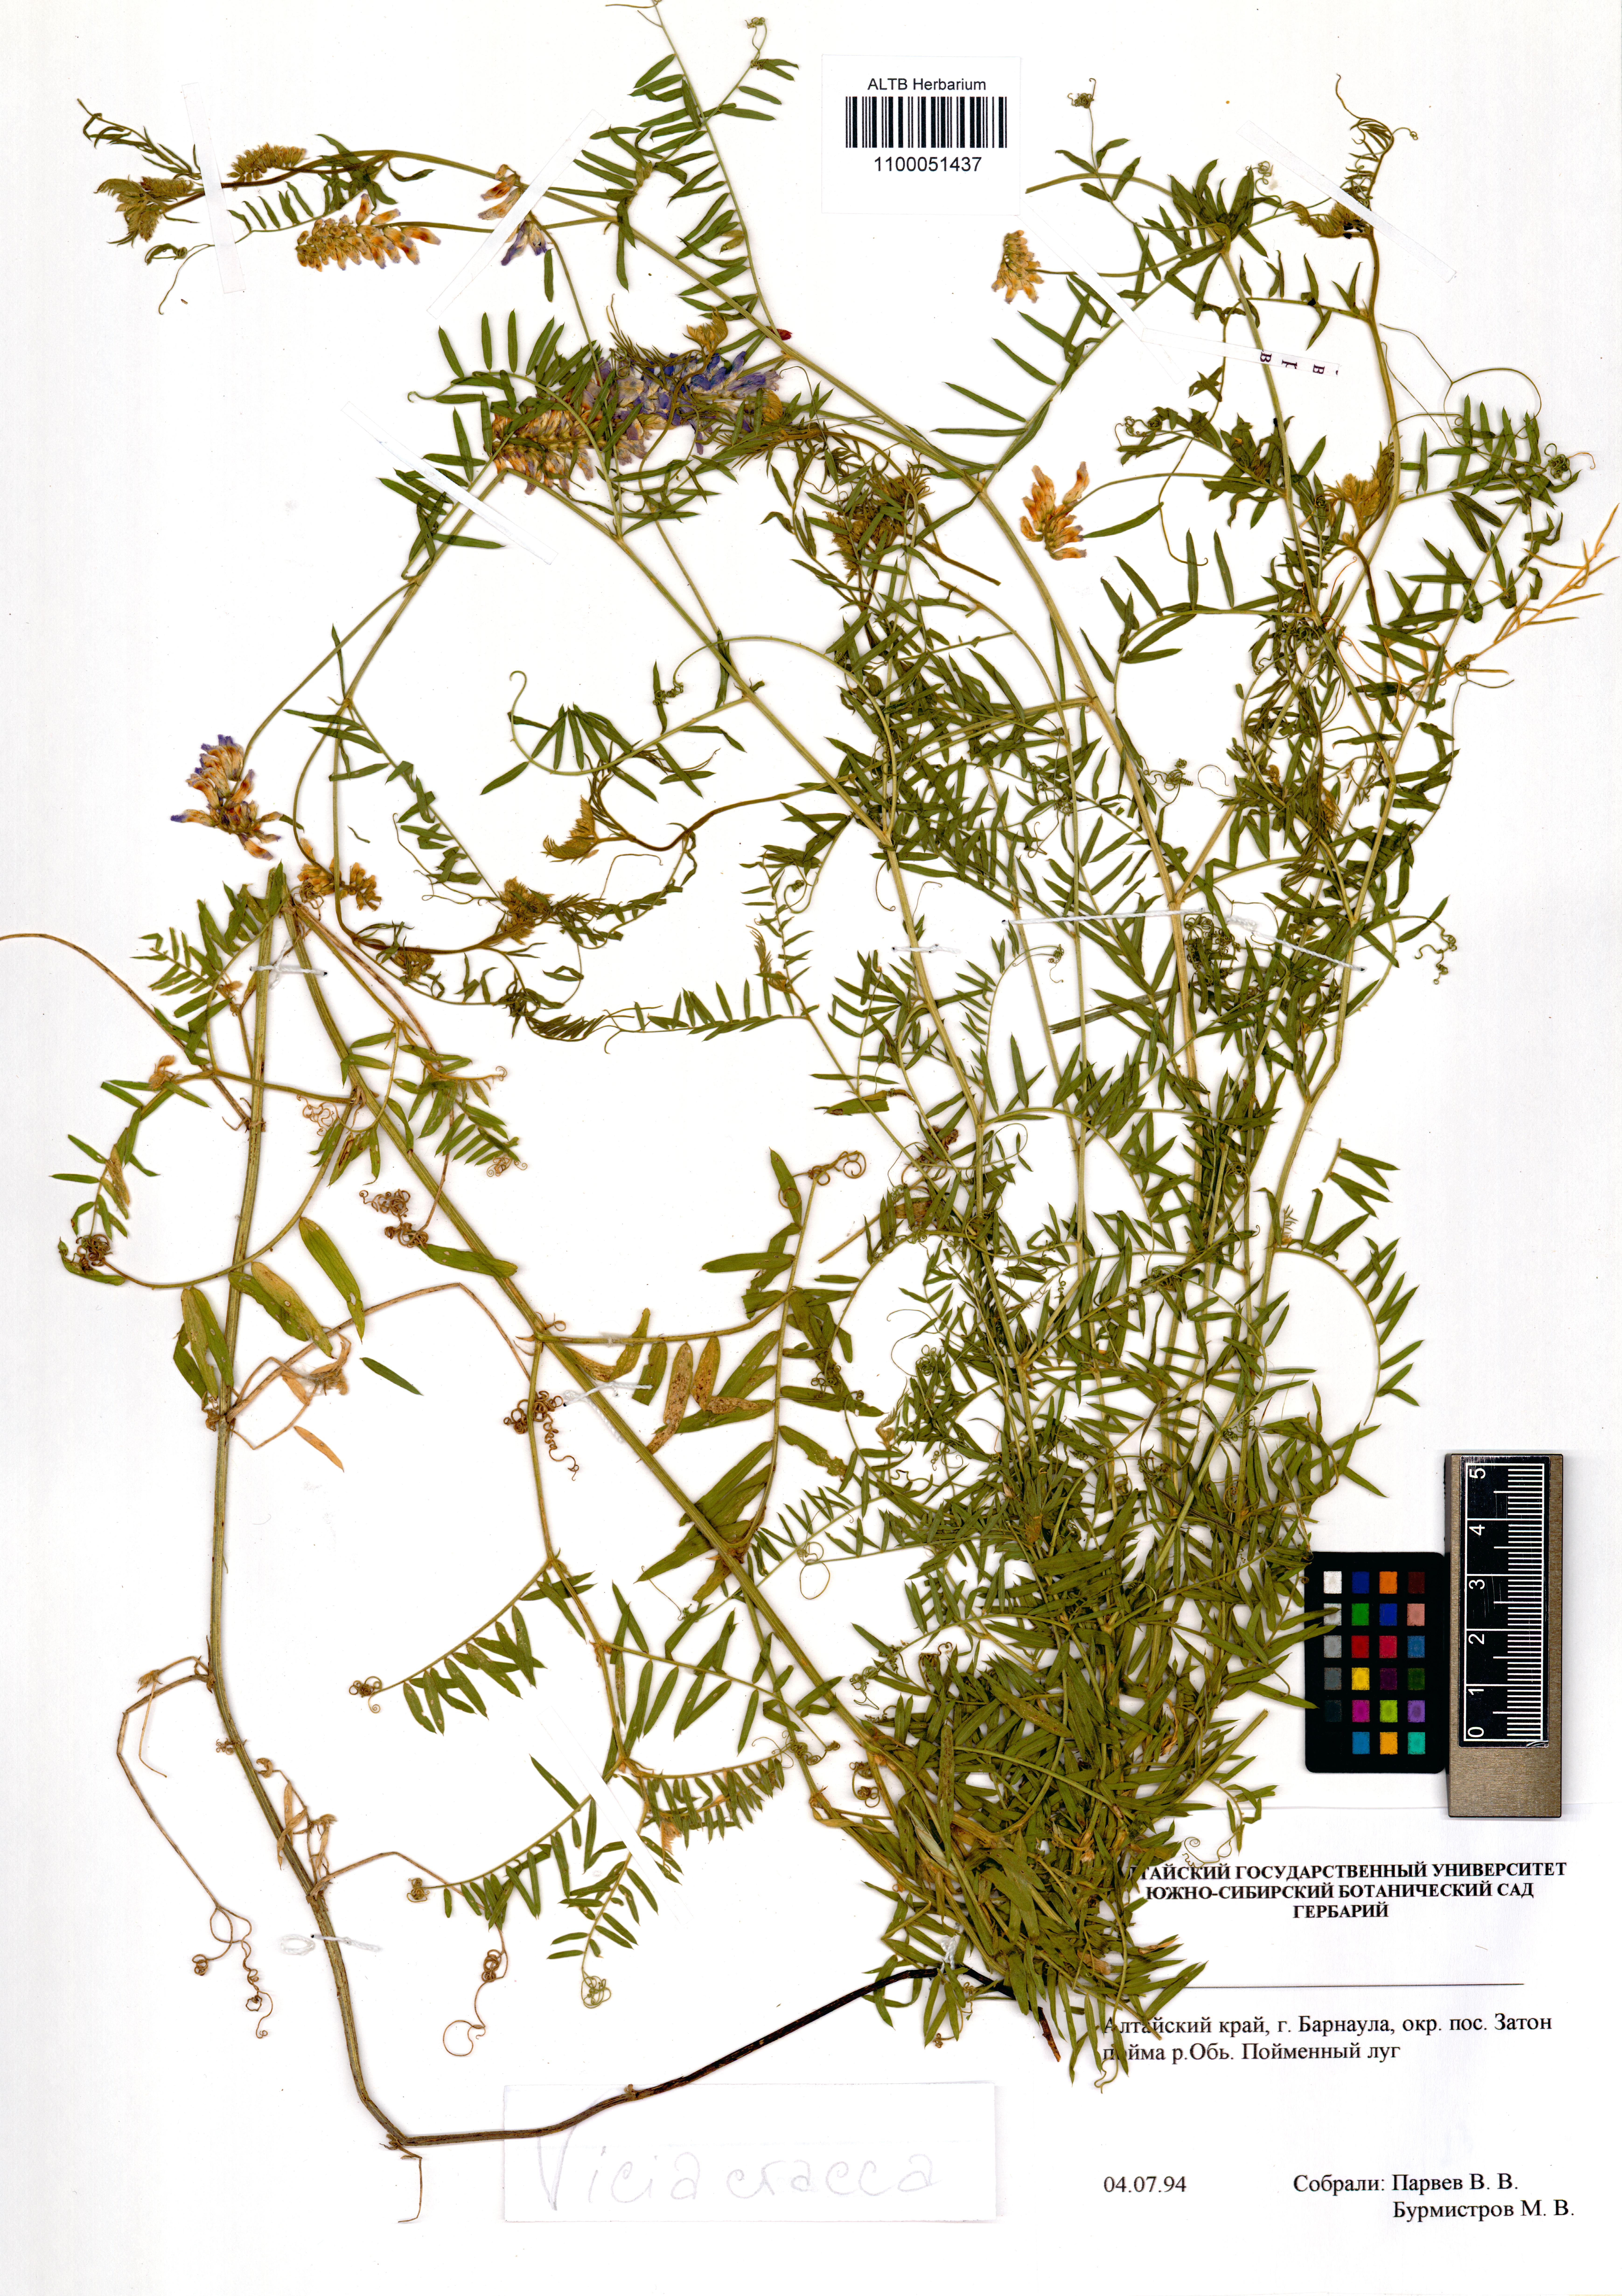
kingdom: Plantae
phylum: Tracheophyta
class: Magnoliopsida
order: Fabales
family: Fabaceae
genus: Vicia
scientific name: Vicia cracca
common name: Bird vetch
